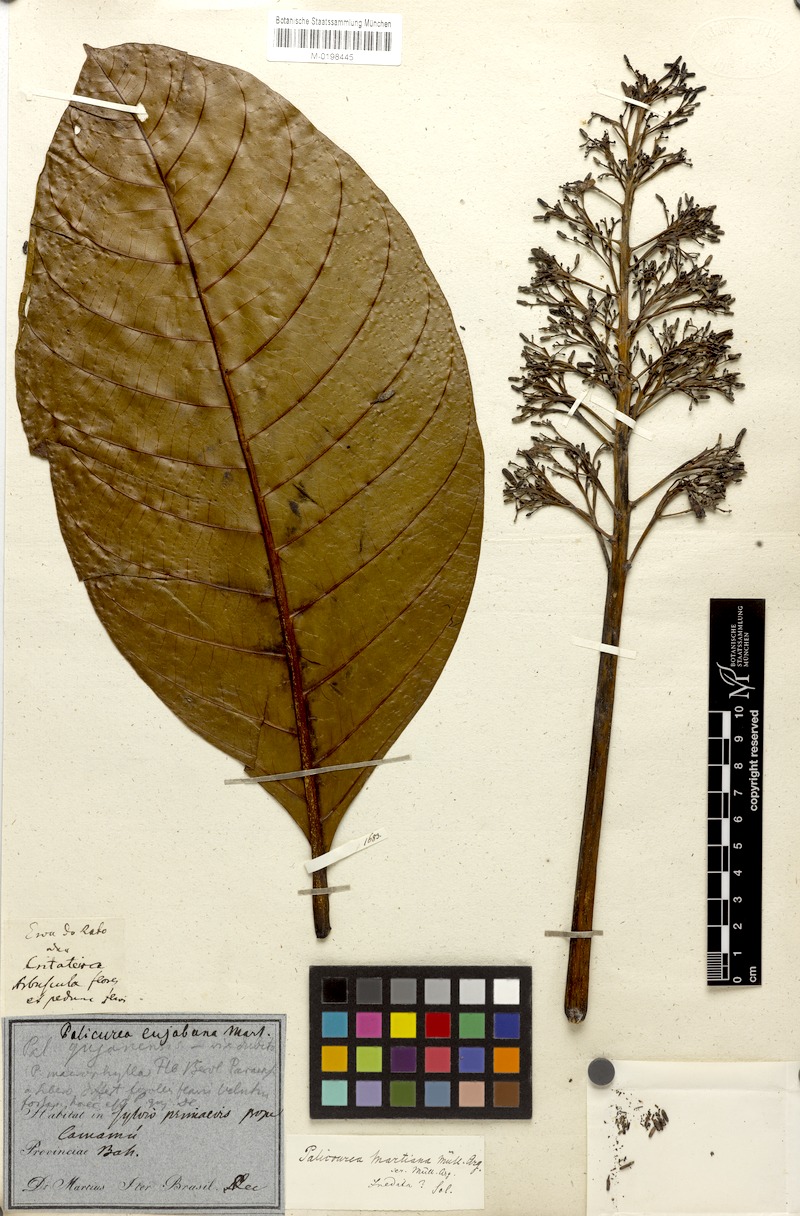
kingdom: Plantae
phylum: Tracheophyta
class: Magnoliopsida
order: Gentianales
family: Rubiaceae
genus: Psychotria
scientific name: Psychotria martiusii
